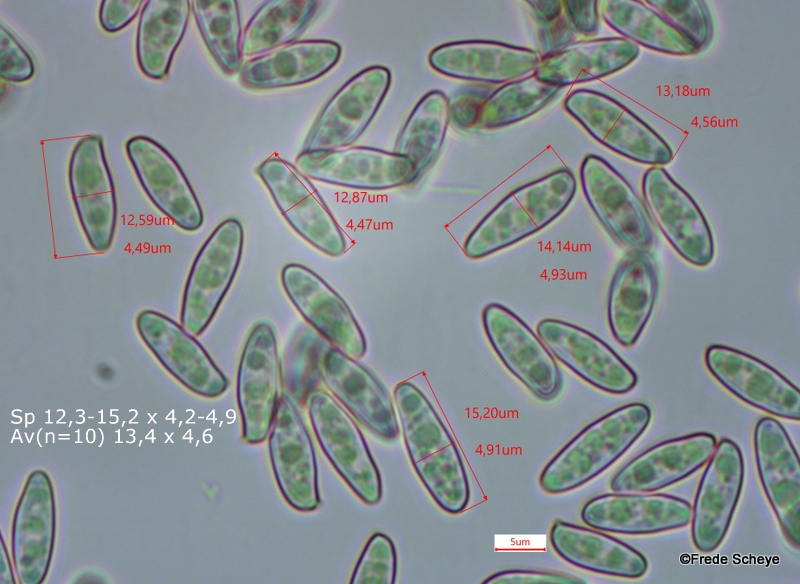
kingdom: Fungi
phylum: Basidiomycota
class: Agaricomycetes
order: Boletales
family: Boletaceae
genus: Imleria
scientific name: Imleria badia
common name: brunstokket rørhat
